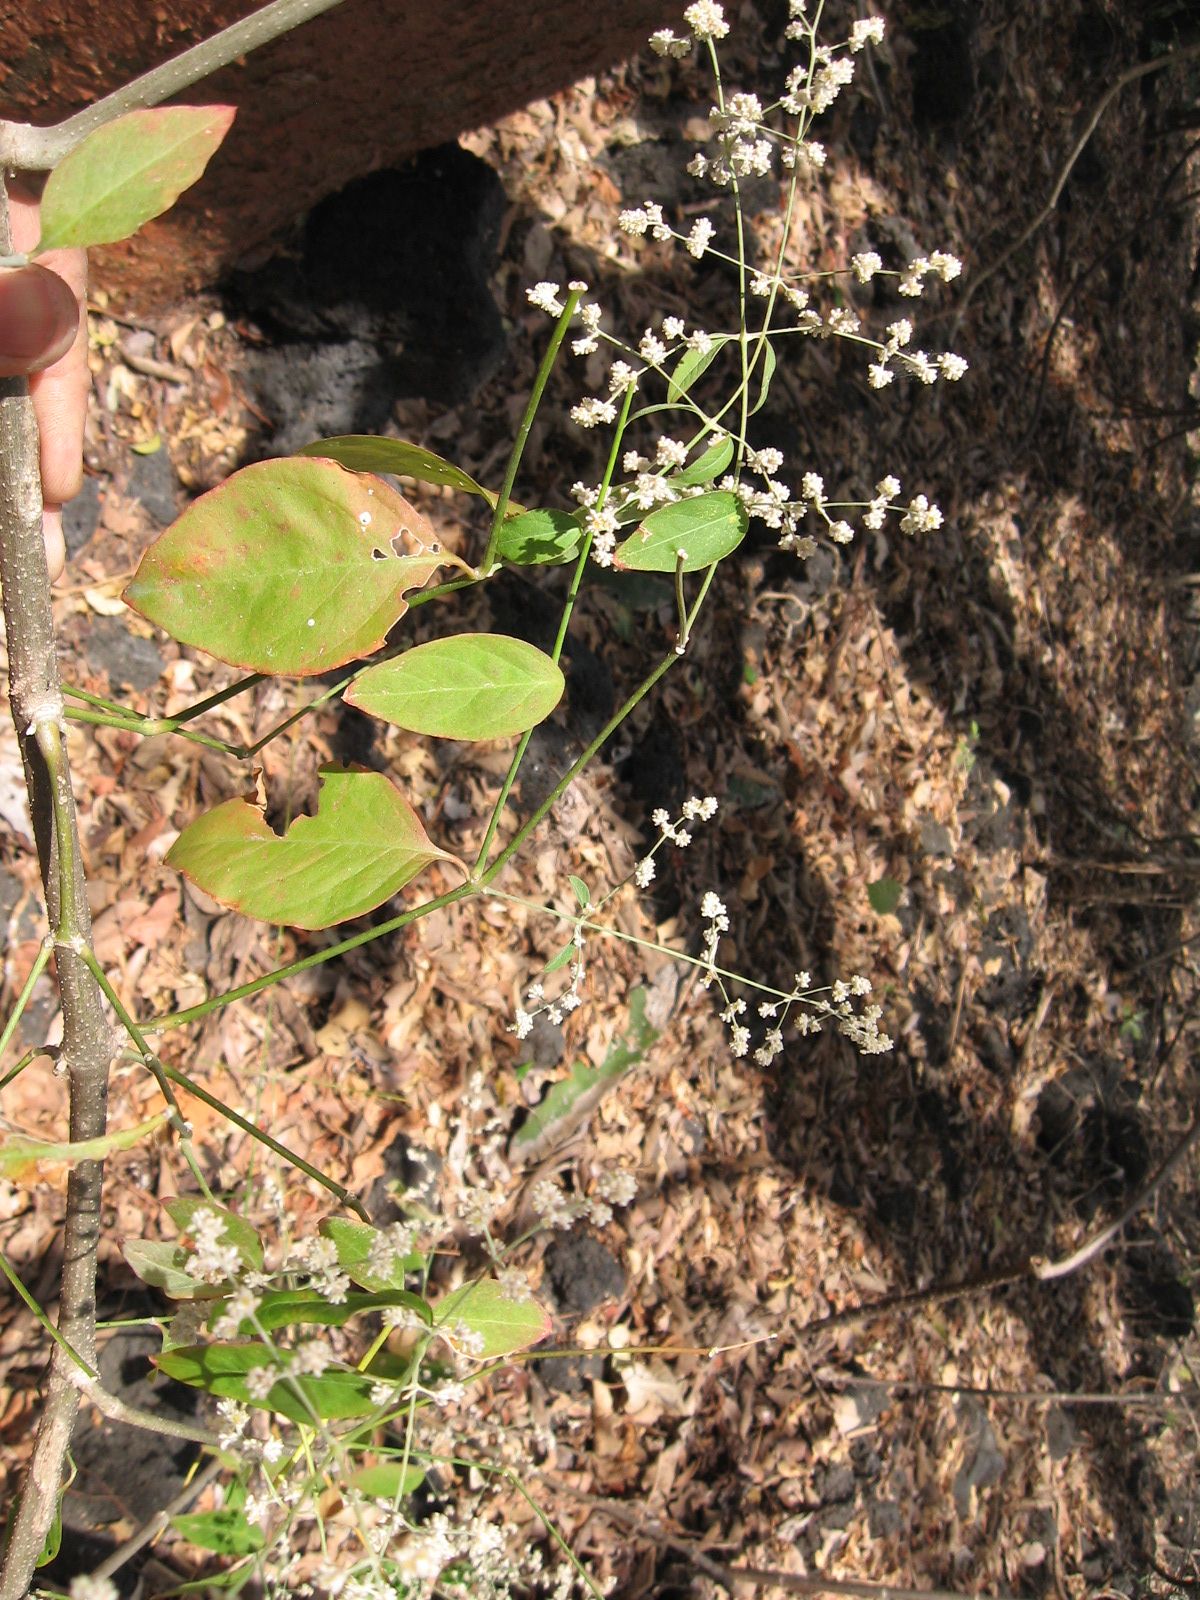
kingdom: Plantae
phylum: Tracheophyta
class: Magnoliopsida
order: Caryophyllales
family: Amaranthaceae
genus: Iresine
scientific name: Iresine latifolia
